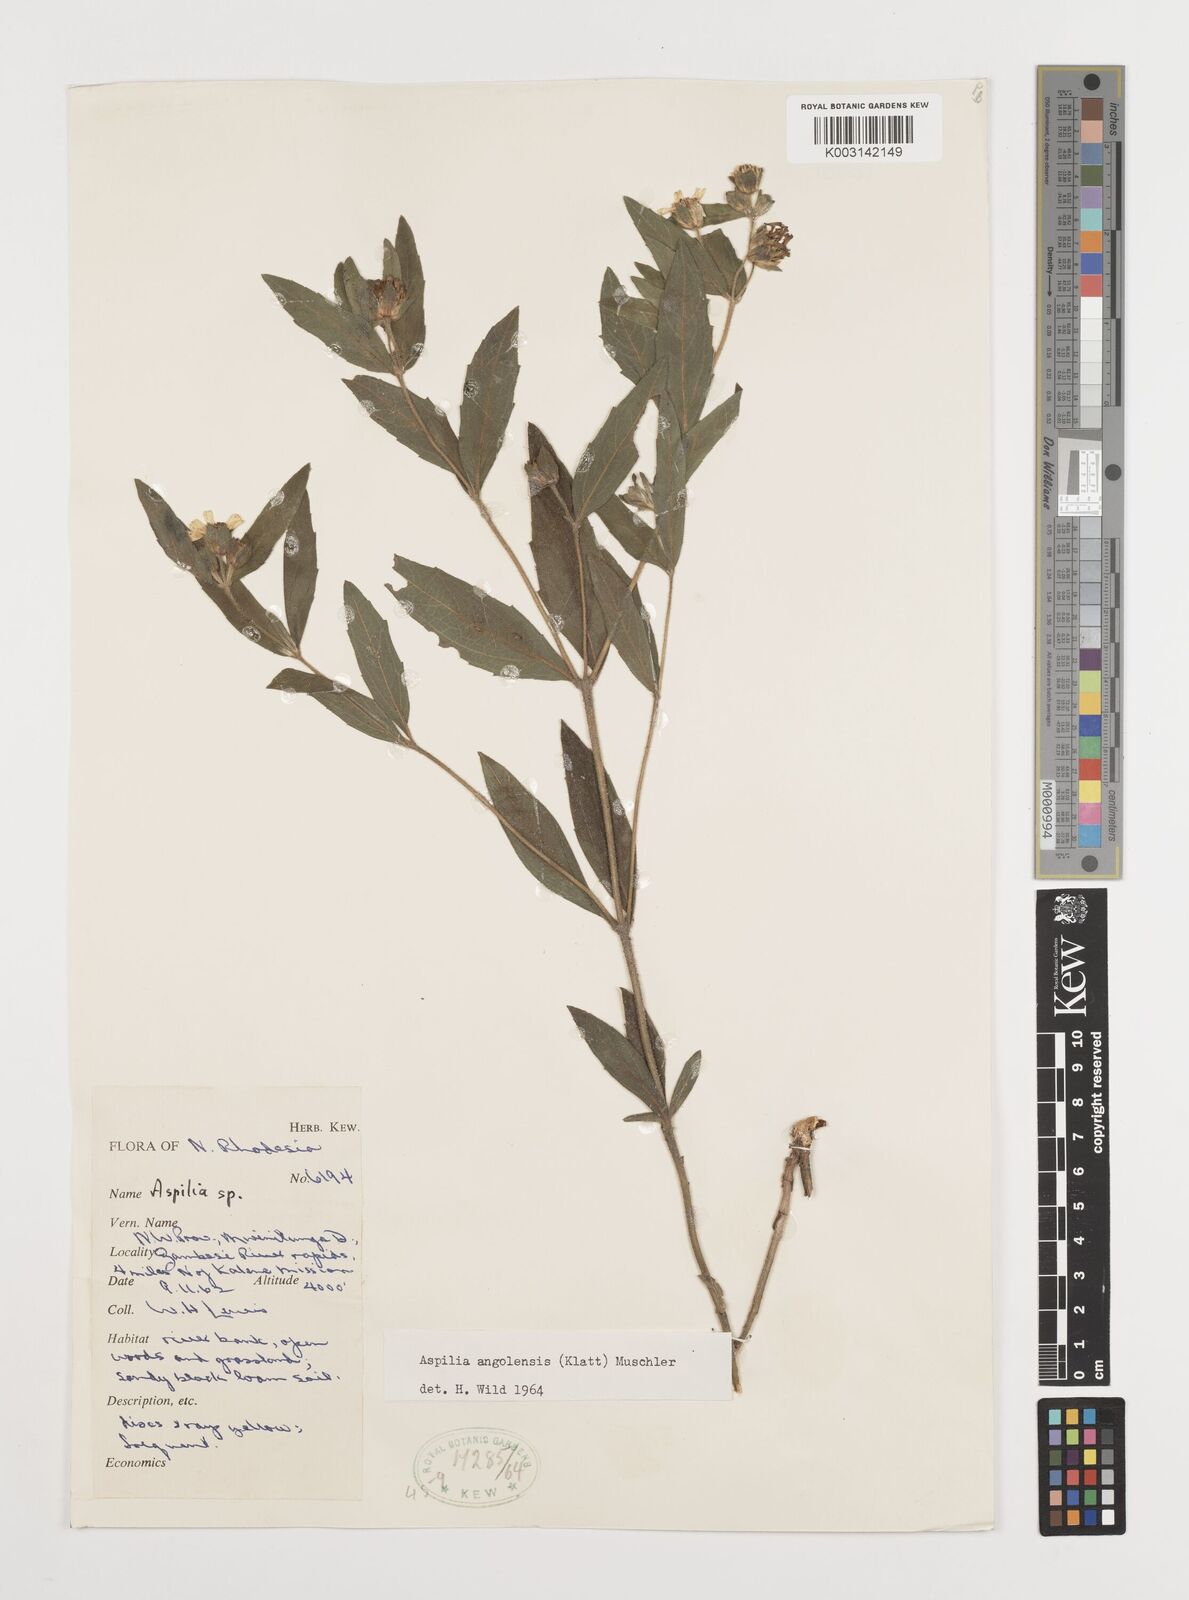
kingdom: Plantae
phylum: Tracheophyta
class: Magnoliopsida
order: Asterales
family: Asteraceae
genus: Aspilia
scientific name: Aspilia natalensis
